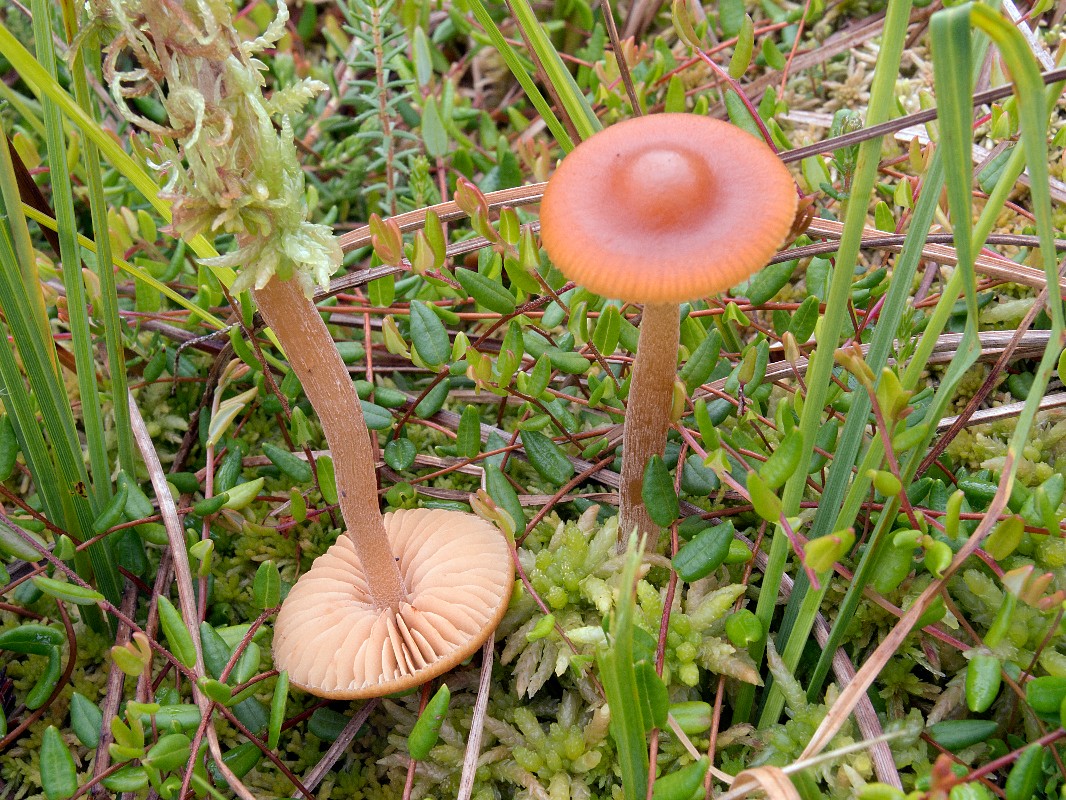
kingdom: Fungi
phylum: Basidiomycota
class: Agaricomycetes
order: Agaricales
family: Hymenogastraceae
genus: Galerina
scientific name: Galerina hybrida
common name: hængesæk-hjelmhat
